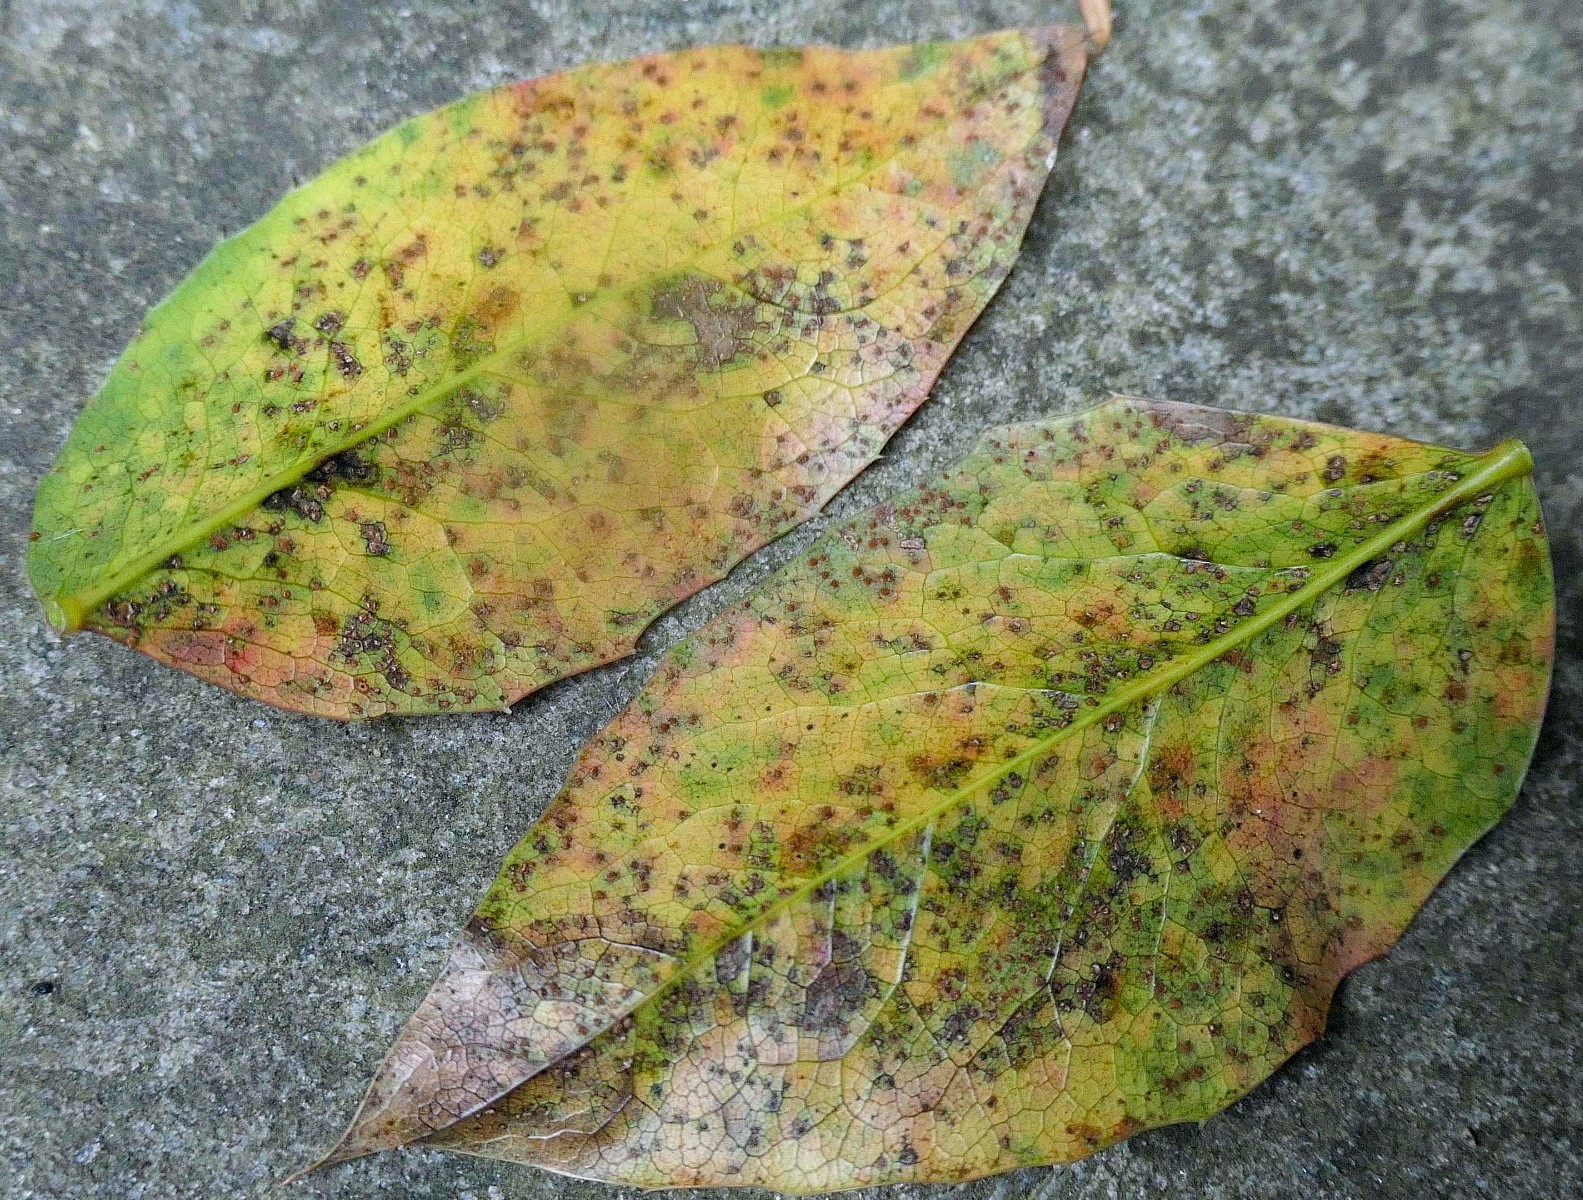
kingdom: Fungi
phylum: Basidiomycota
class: Pucciniomycetes
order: Pucciniales
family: Pucciniaceae
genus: Cumminsiella
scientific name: Cumminsiella mirabilissima
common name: mahonierust
